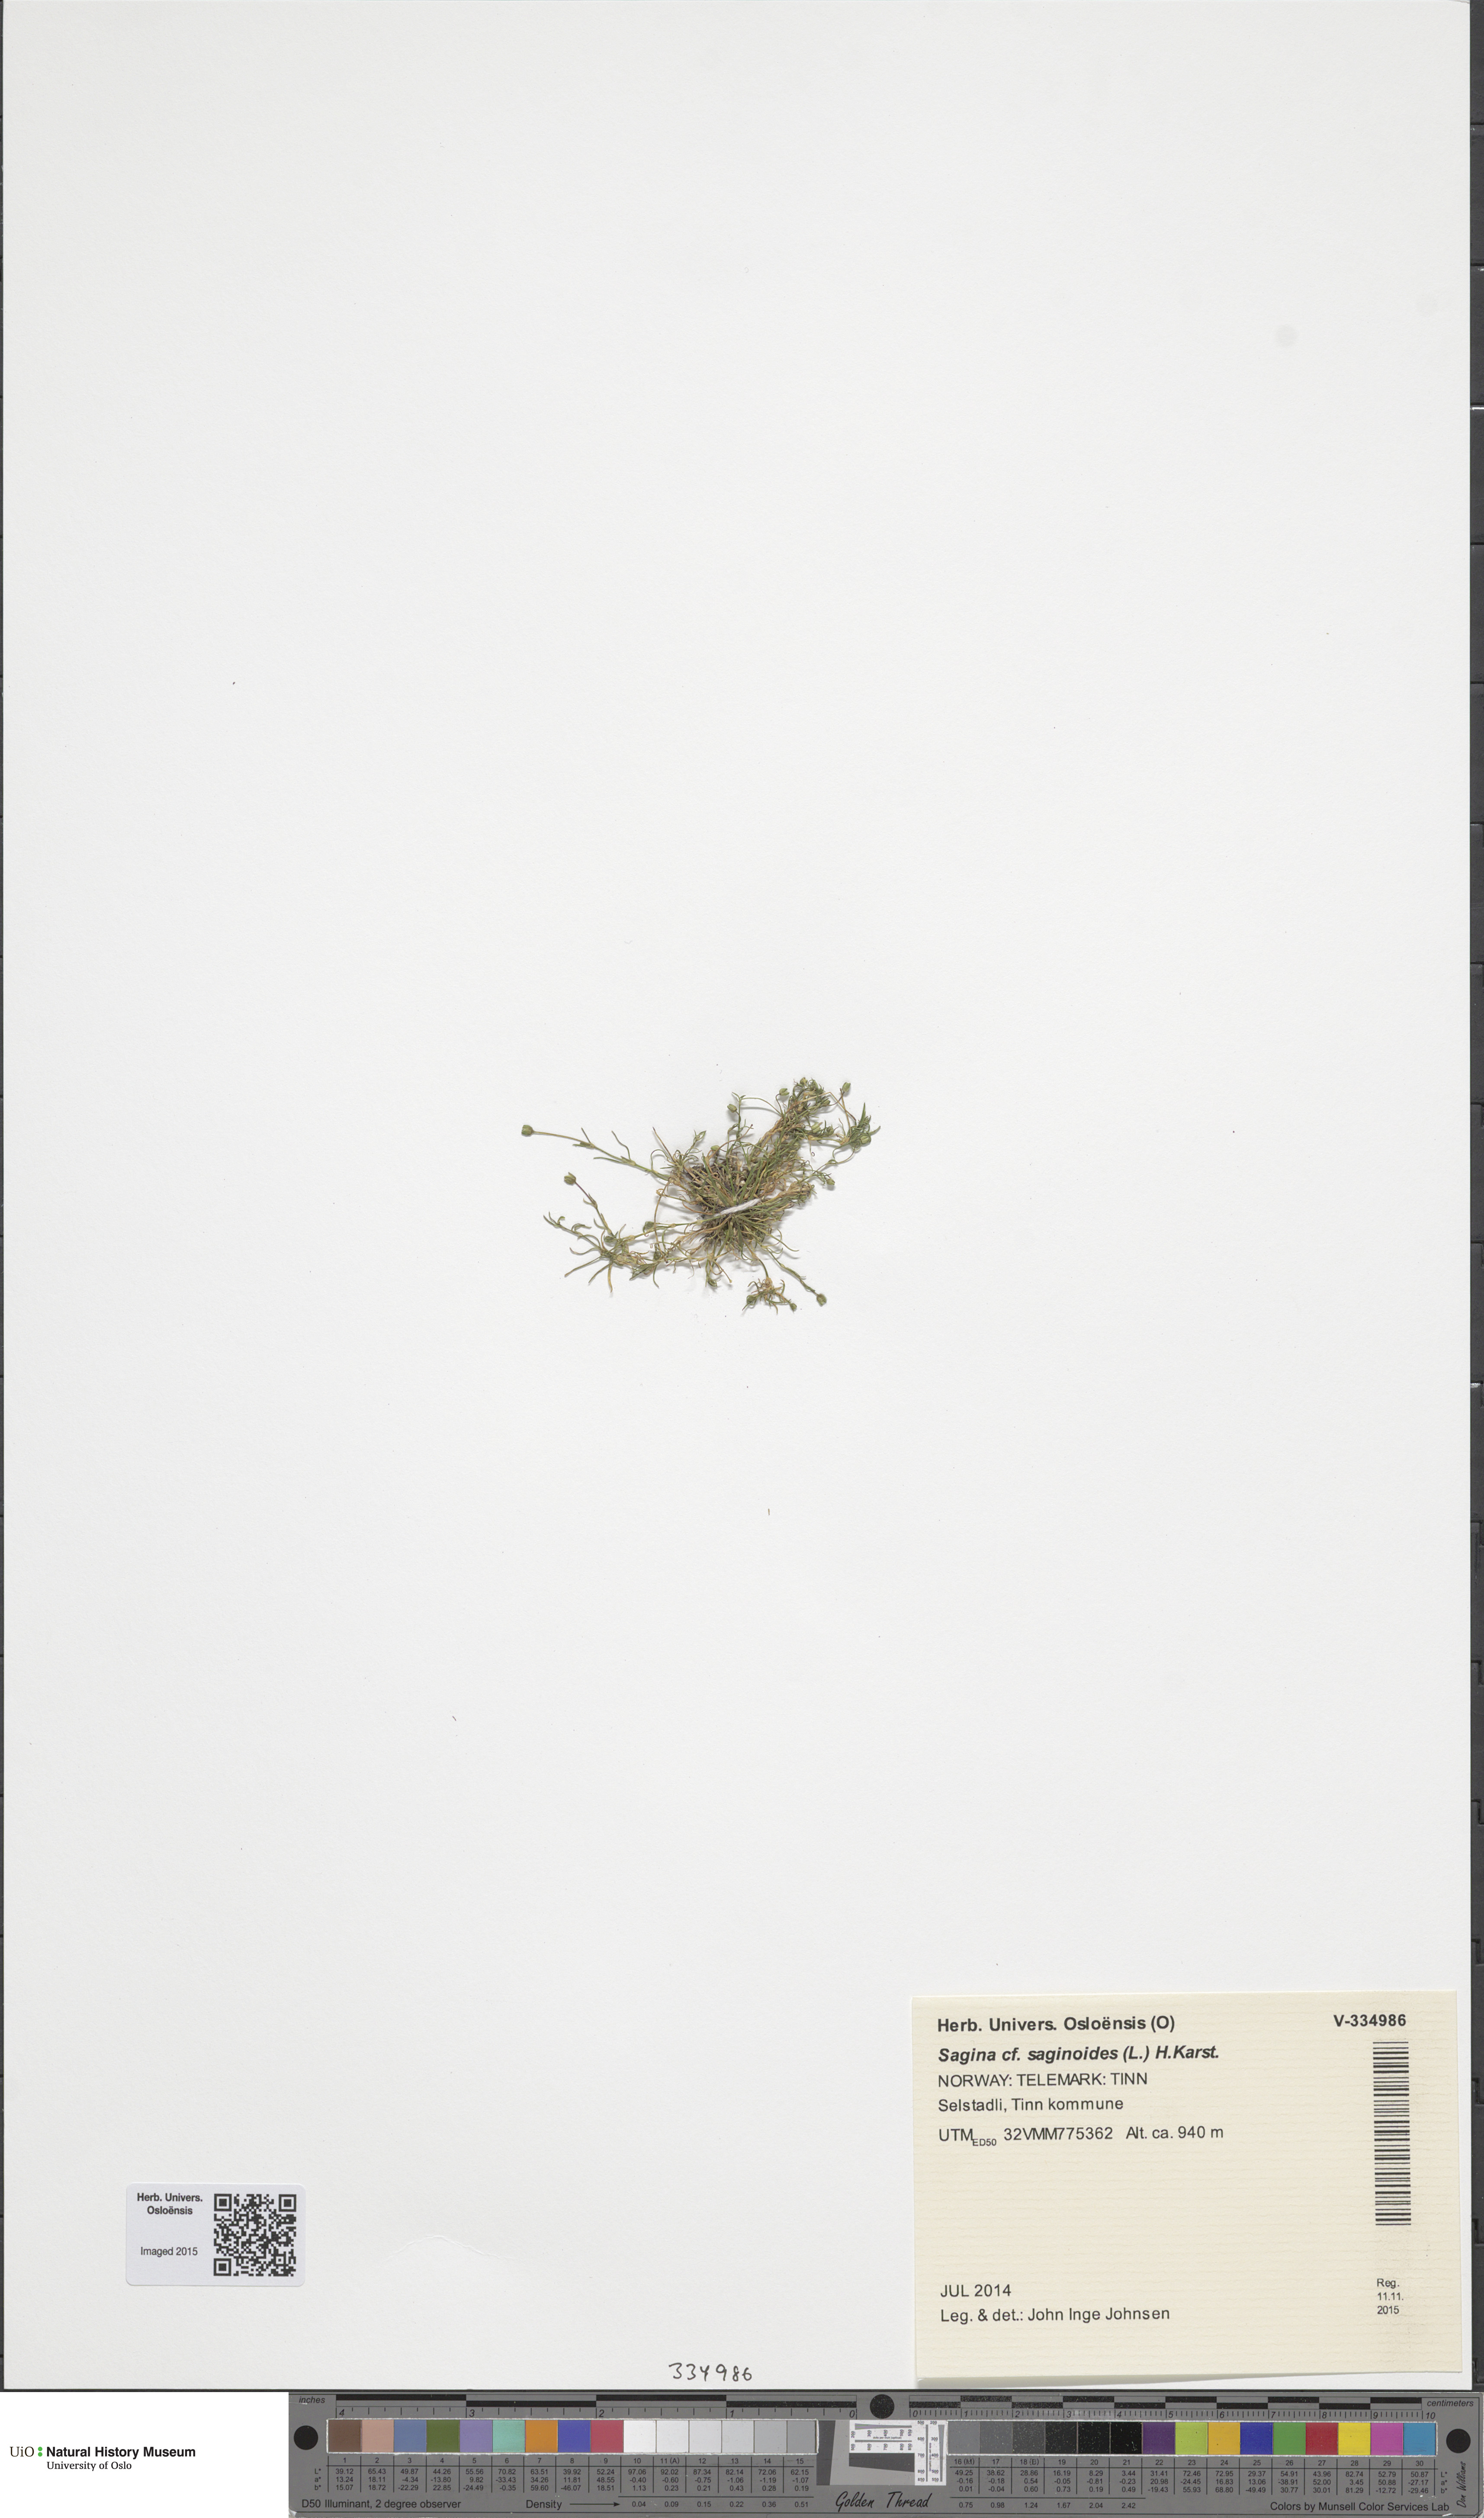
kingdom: Plantae
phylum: Tracheophyta
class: Magnoliopsida
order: Caryophyllales
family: Caryophyllaceae
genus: Sagina
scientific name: Sagina procumbens
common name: Procumbent pearlwort
